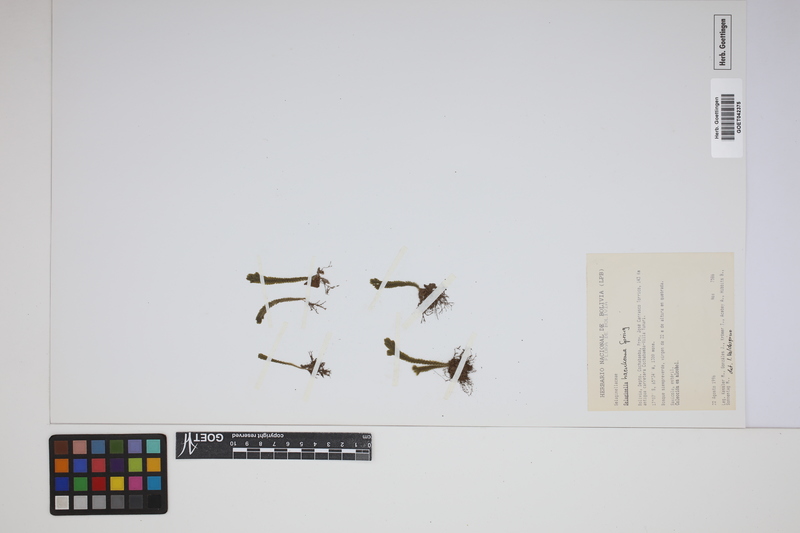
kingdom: Plantae
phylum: Tracheophyta
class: Lycopodiopsida
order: Selaginellales
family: Selaginellaceae
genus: Selaginella
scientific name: Selaginella haenkeana
